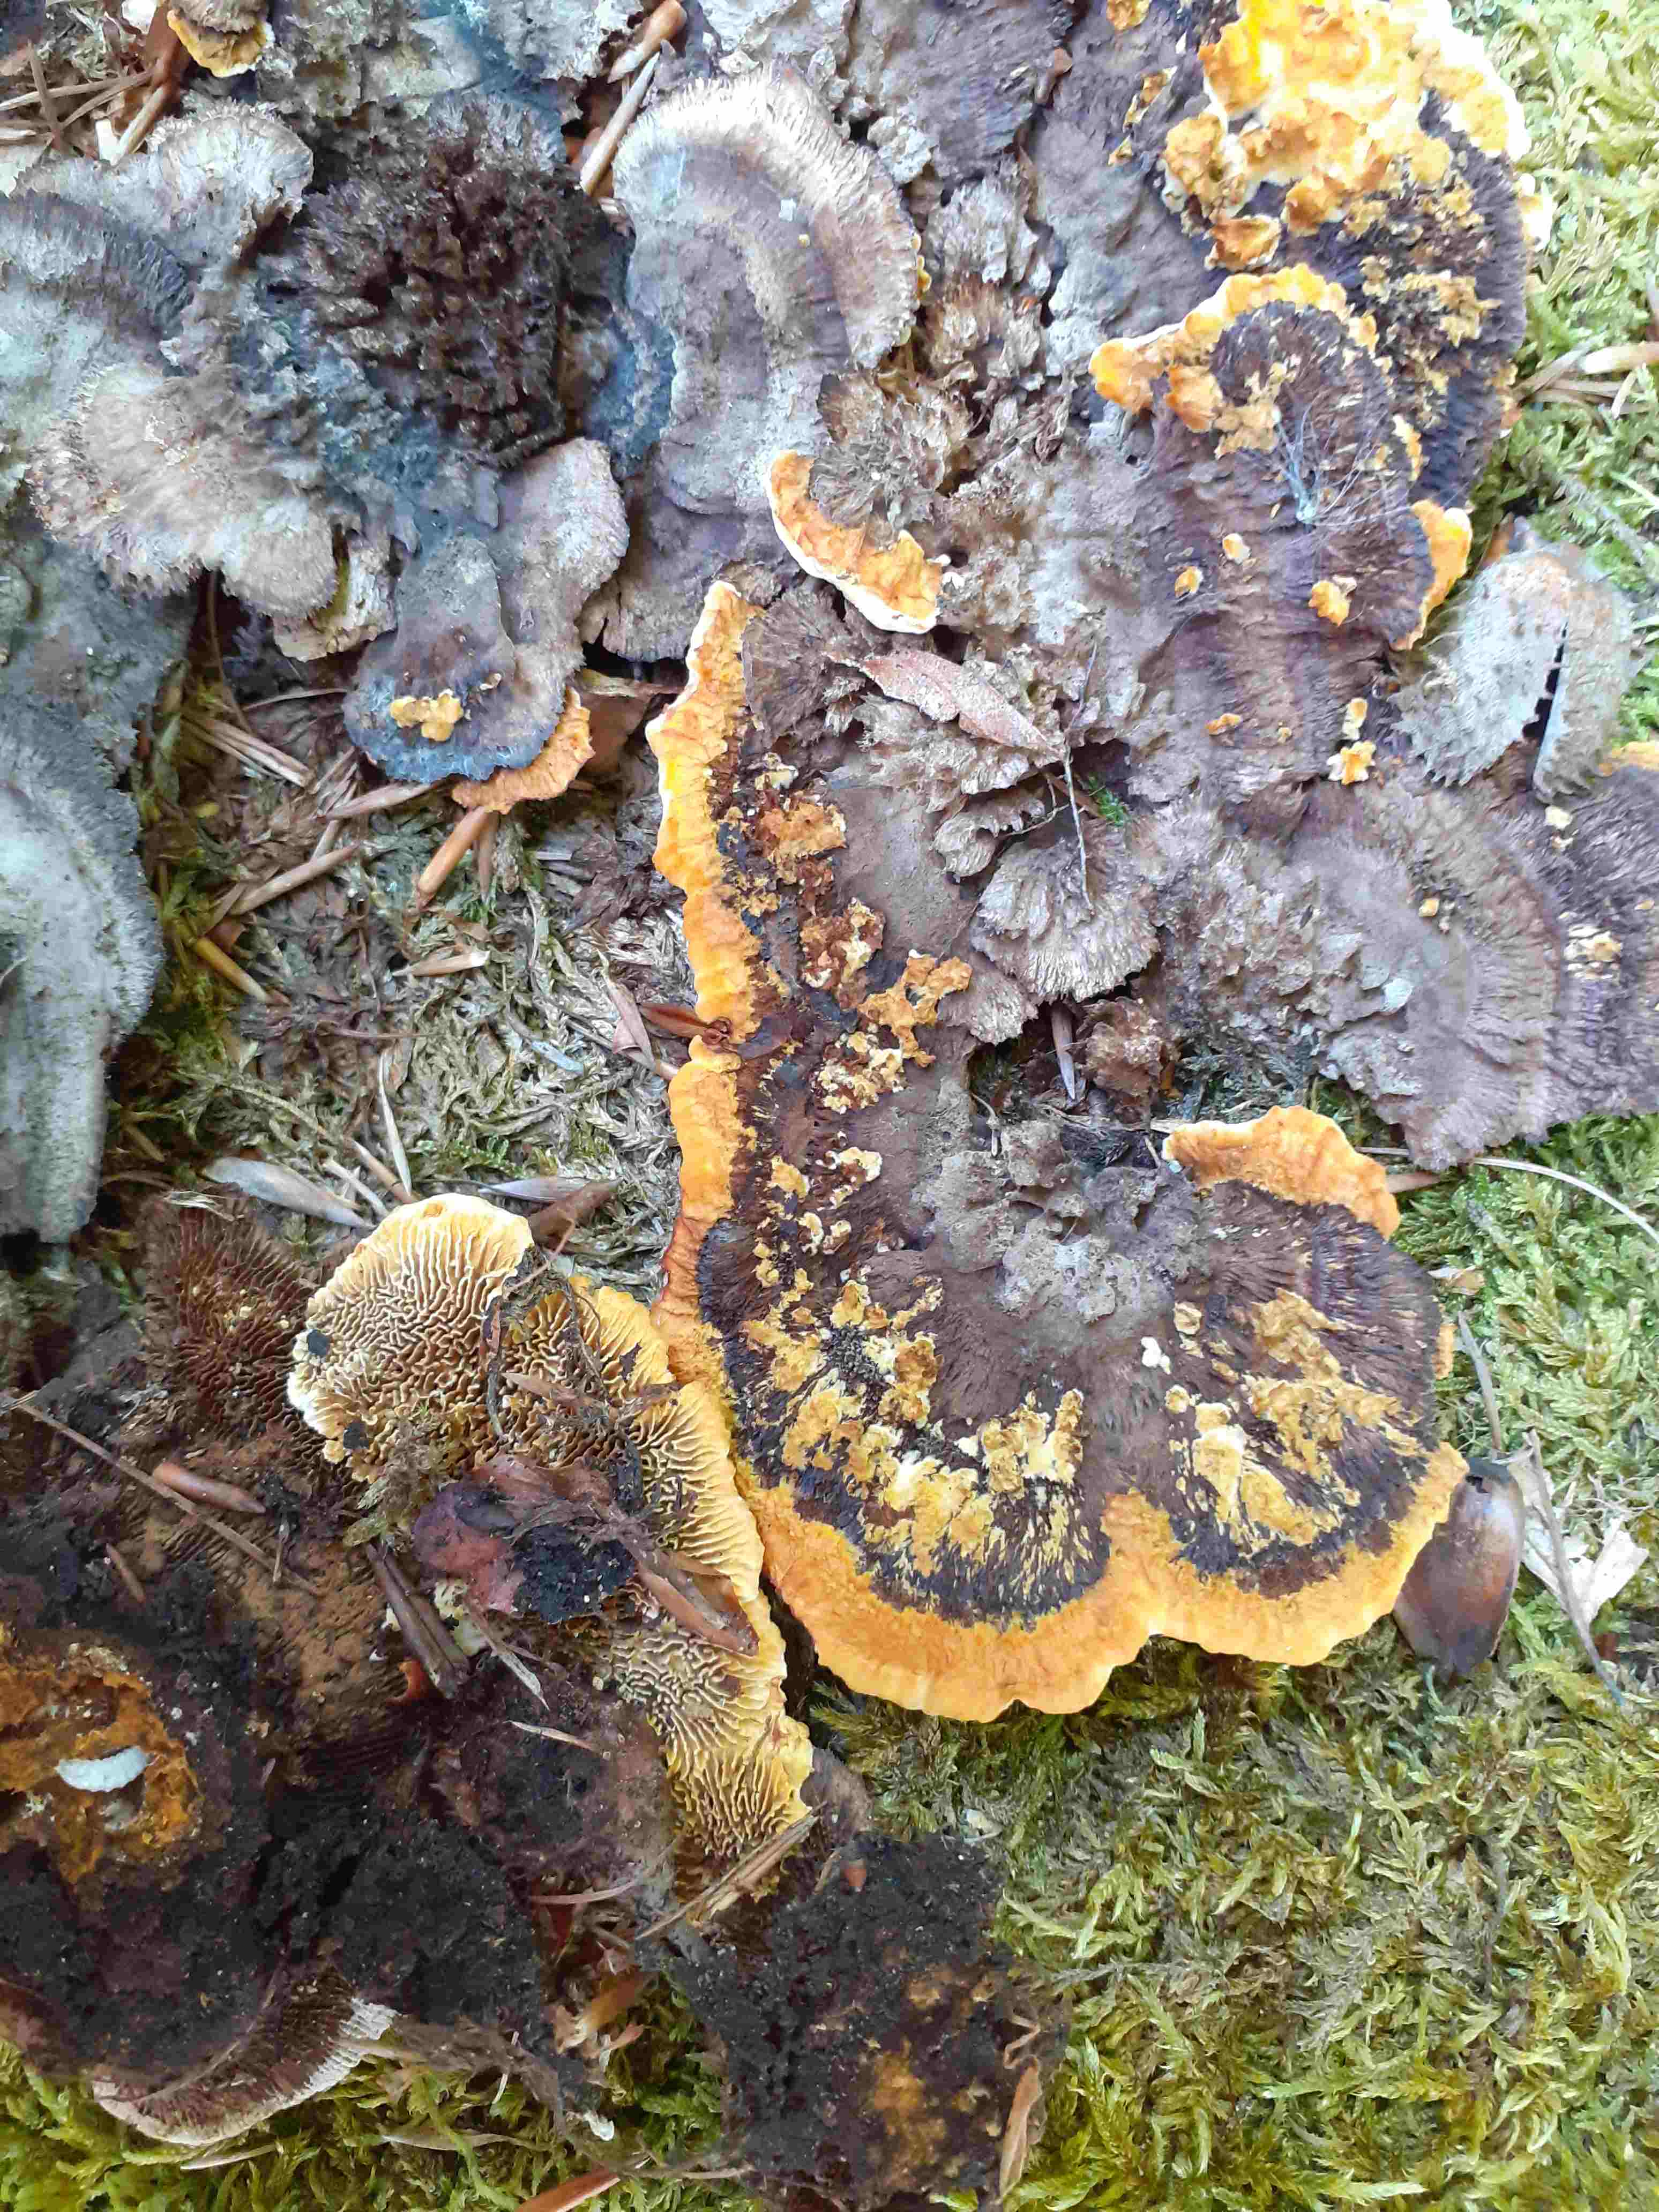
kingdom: Fungi
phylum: Basidiomycota
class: Agaricomycetes
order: Gloeophyllales
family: Gloeophyllaceae
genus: Gloeophyllum
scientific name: Gloeophyllum sepiarium
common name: fyrre-korkhat
